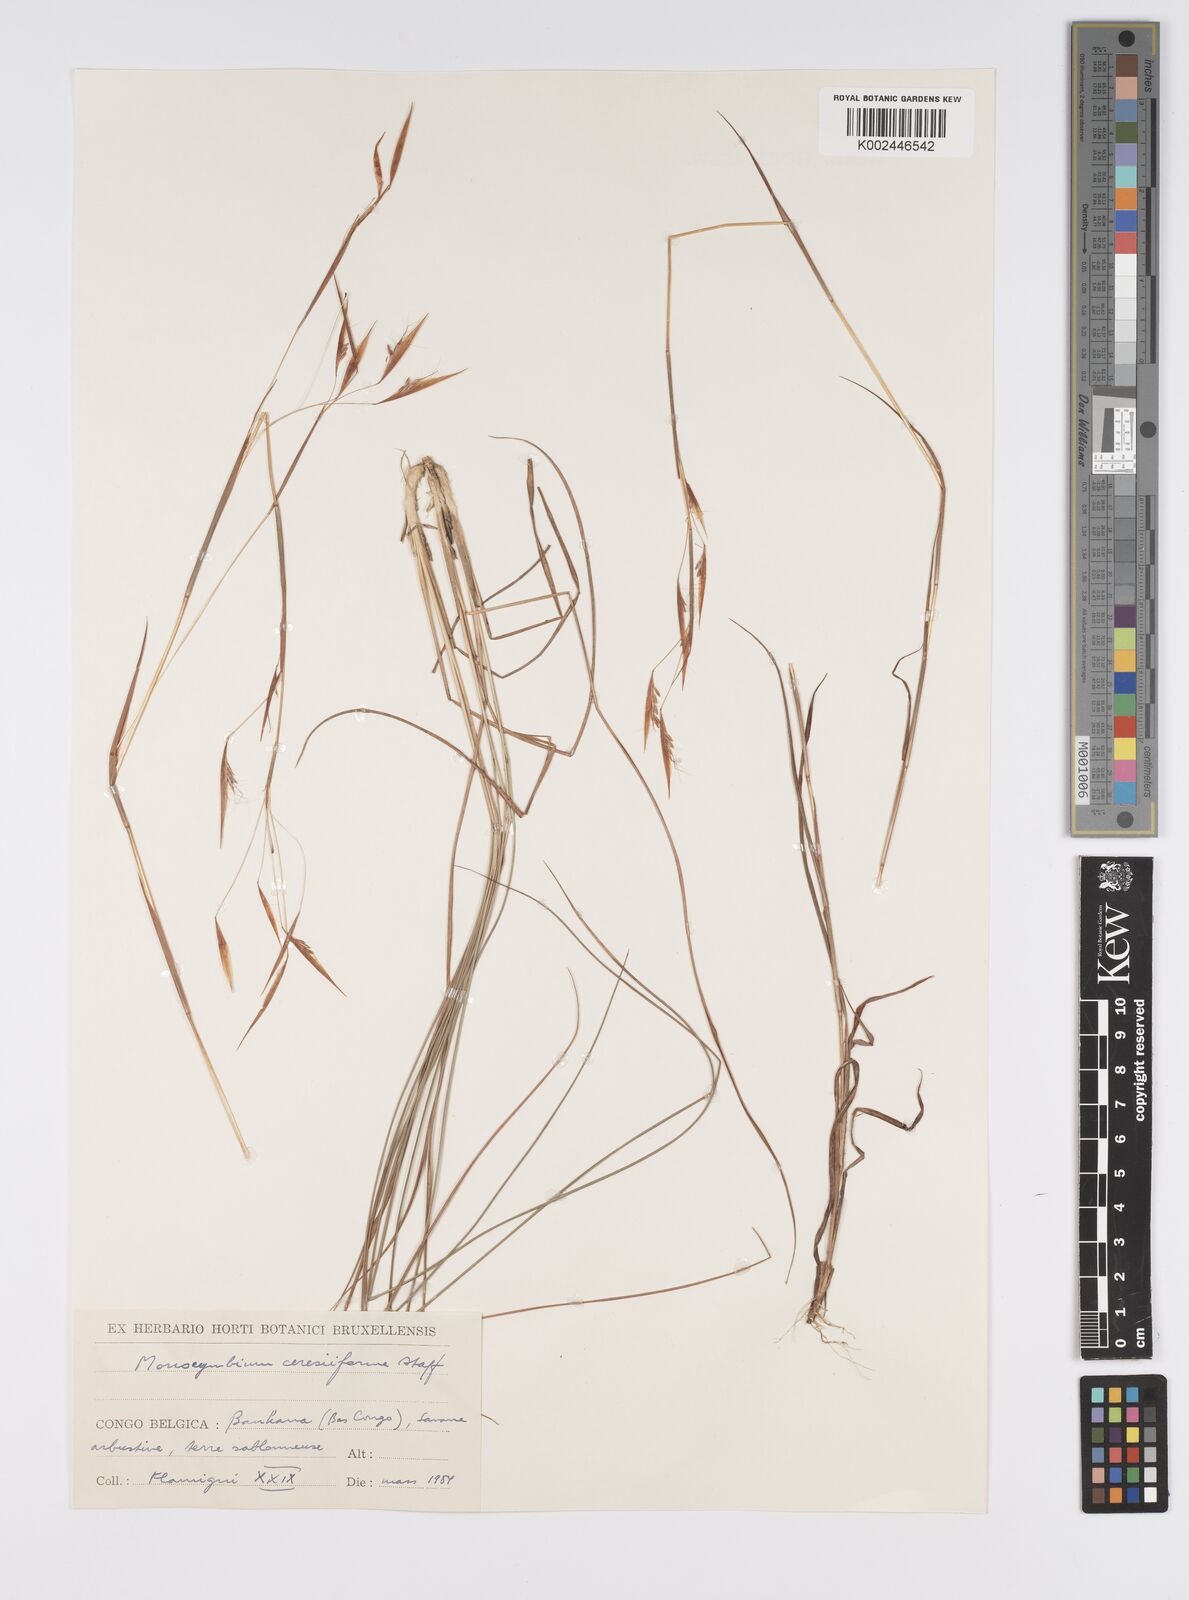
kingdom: Plantae
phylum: Tracheophyta
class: Liliopsida
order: Poales
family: Poaceae
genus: Monocymbium
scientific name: Monocymbium ceresiiforme
